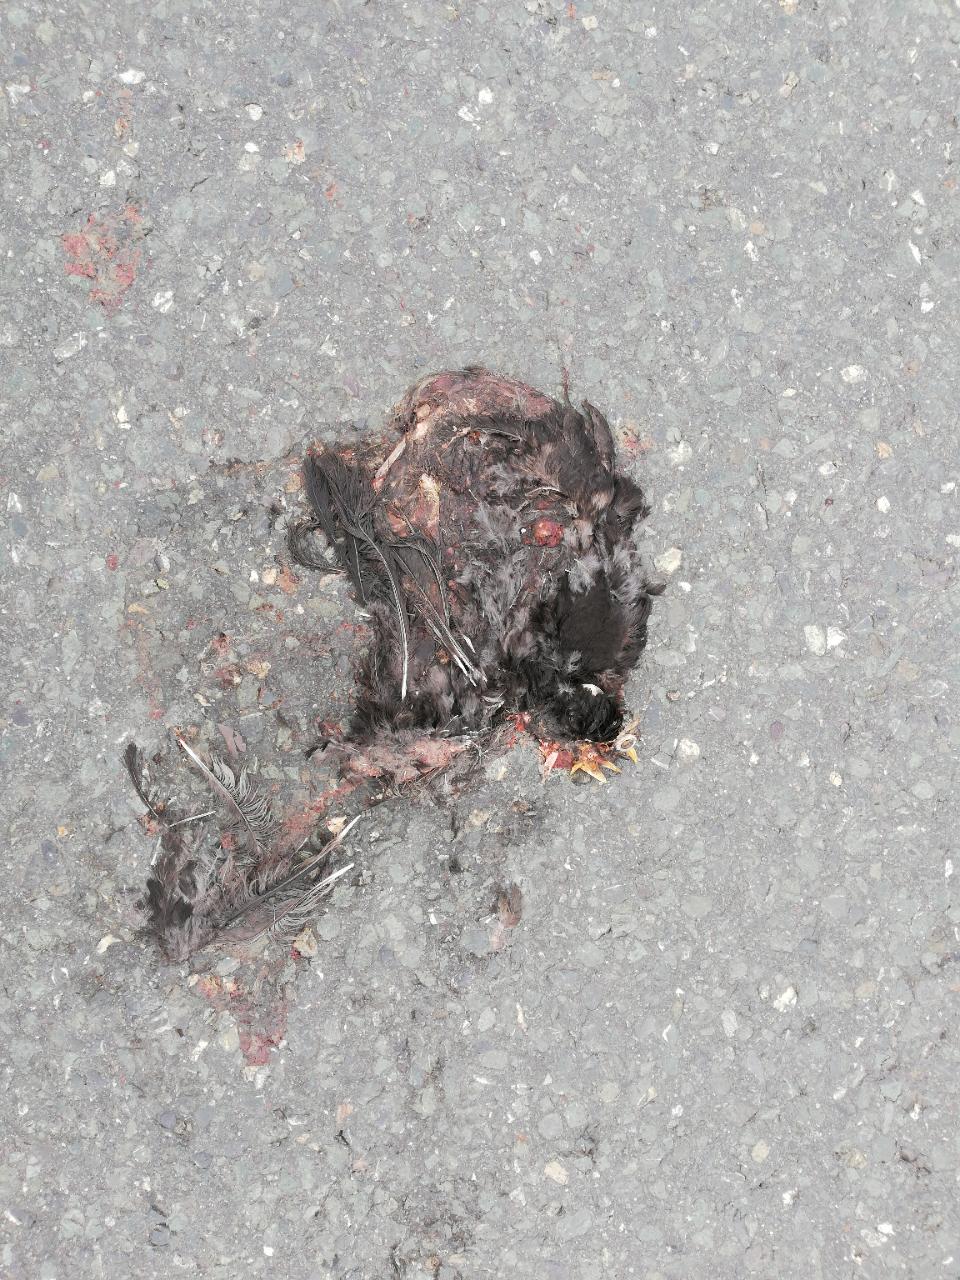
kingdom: Animalia
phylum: Chordata
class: Aves
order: Passeriformes
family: Turdidae
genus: Turdus
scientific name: Turdus merula
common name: Common blackbird
